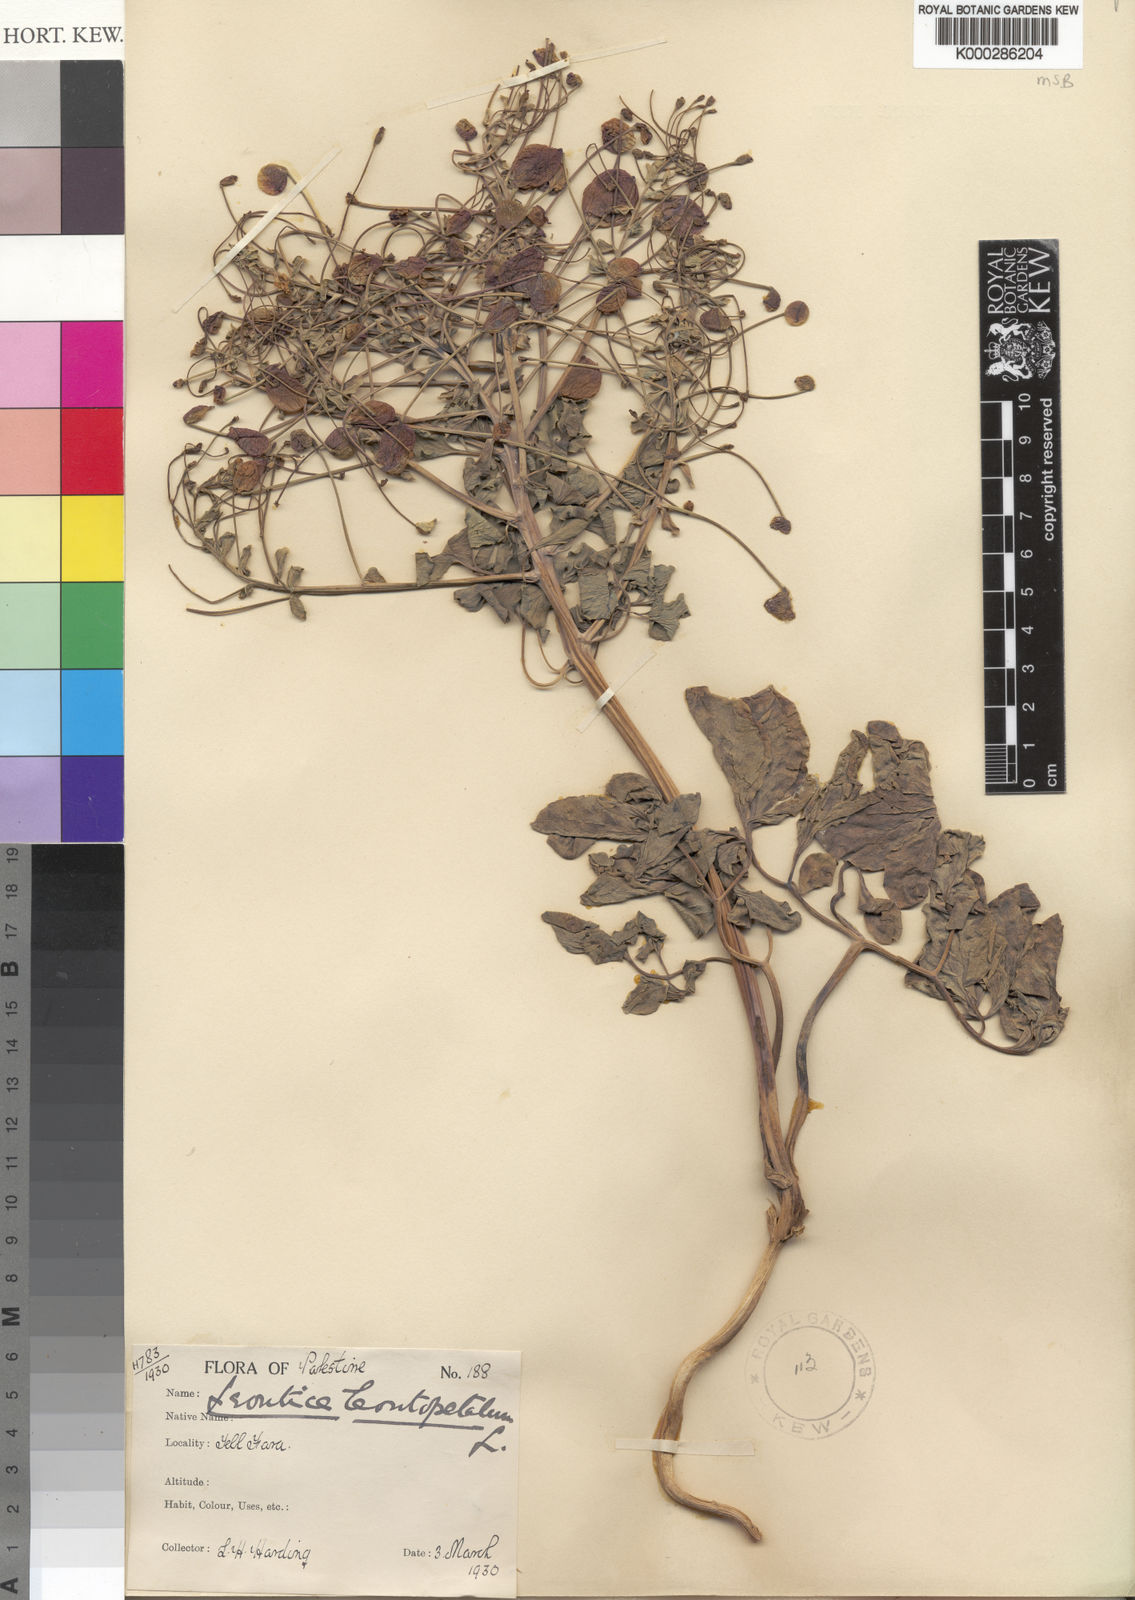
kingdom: Plantae
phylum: Tracheophyta
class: Magnoliopsida
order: Ranunculales
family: Berberidaceae
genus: Leontice
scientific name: Leontice leontopetalum
